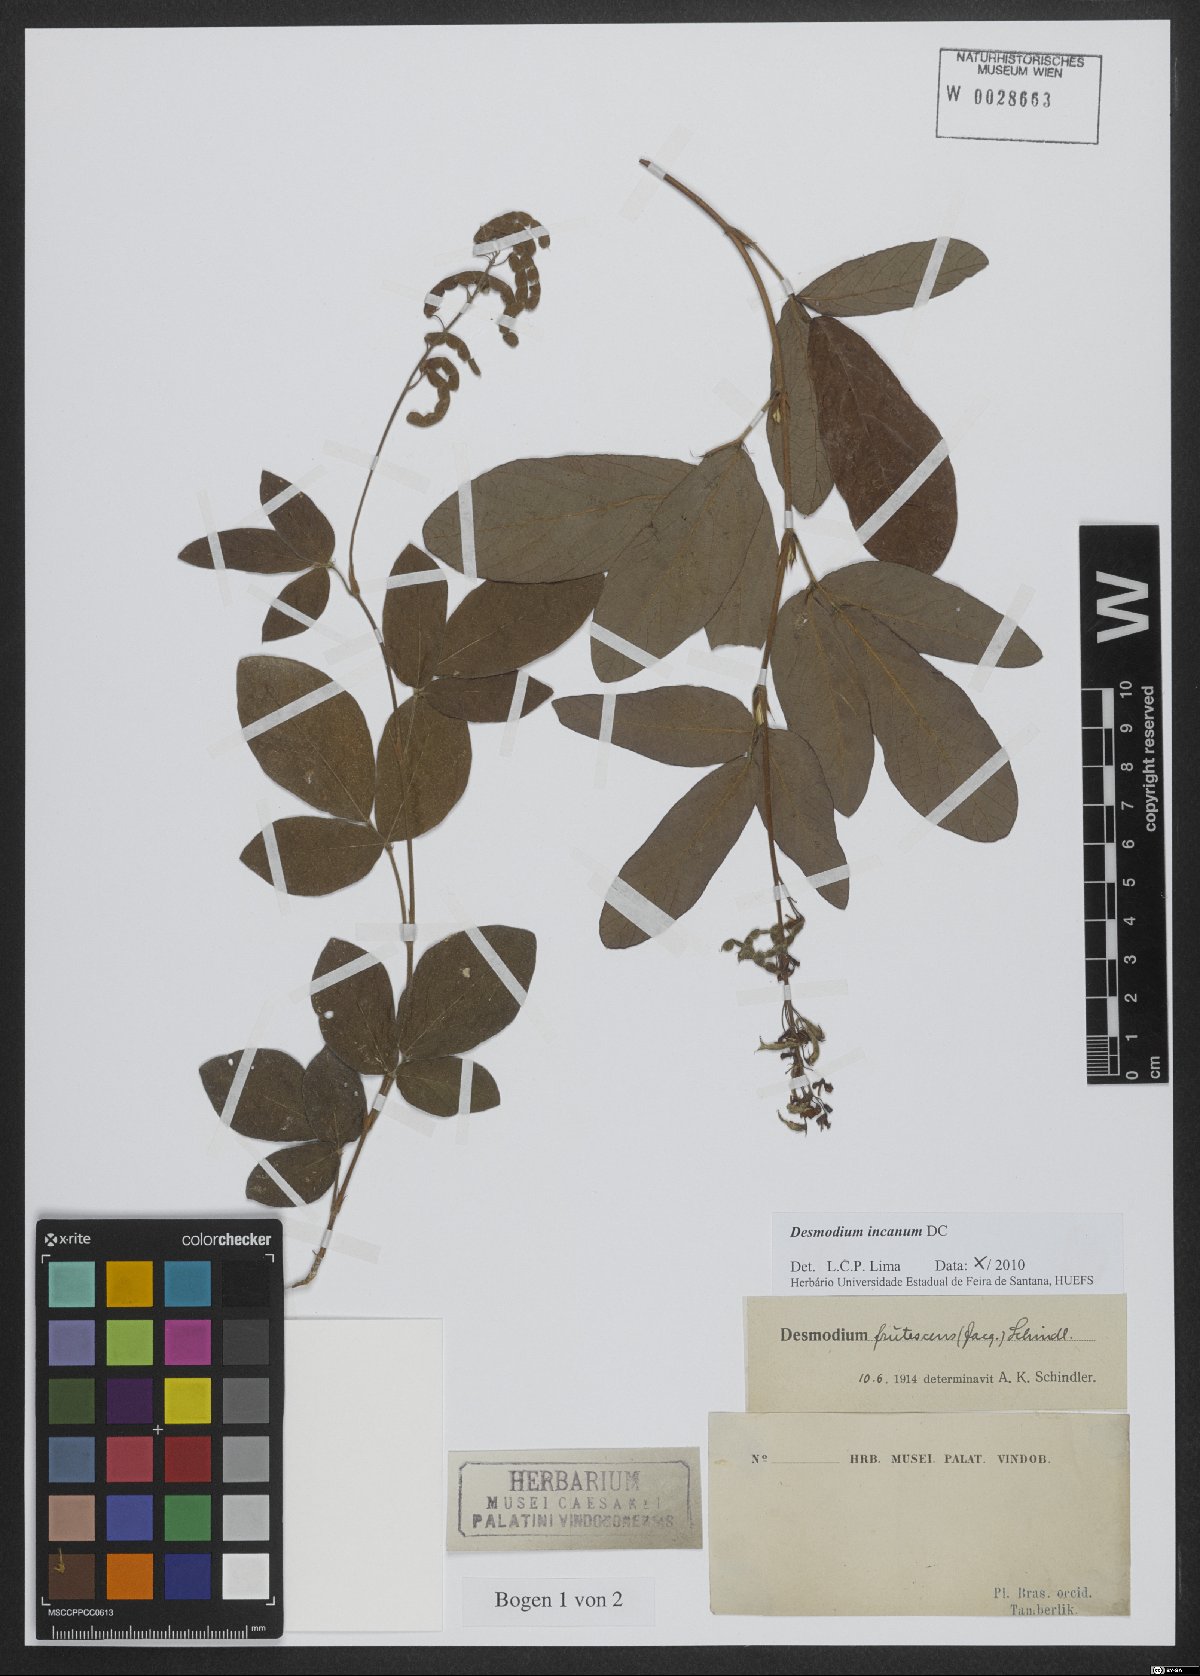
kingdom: Plantae
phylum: Tracheophyta
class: Magnoliopsida
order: Fabales
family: Fabaceae
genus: Desmodium
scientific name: Desmodium incanum
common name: Tickclover
